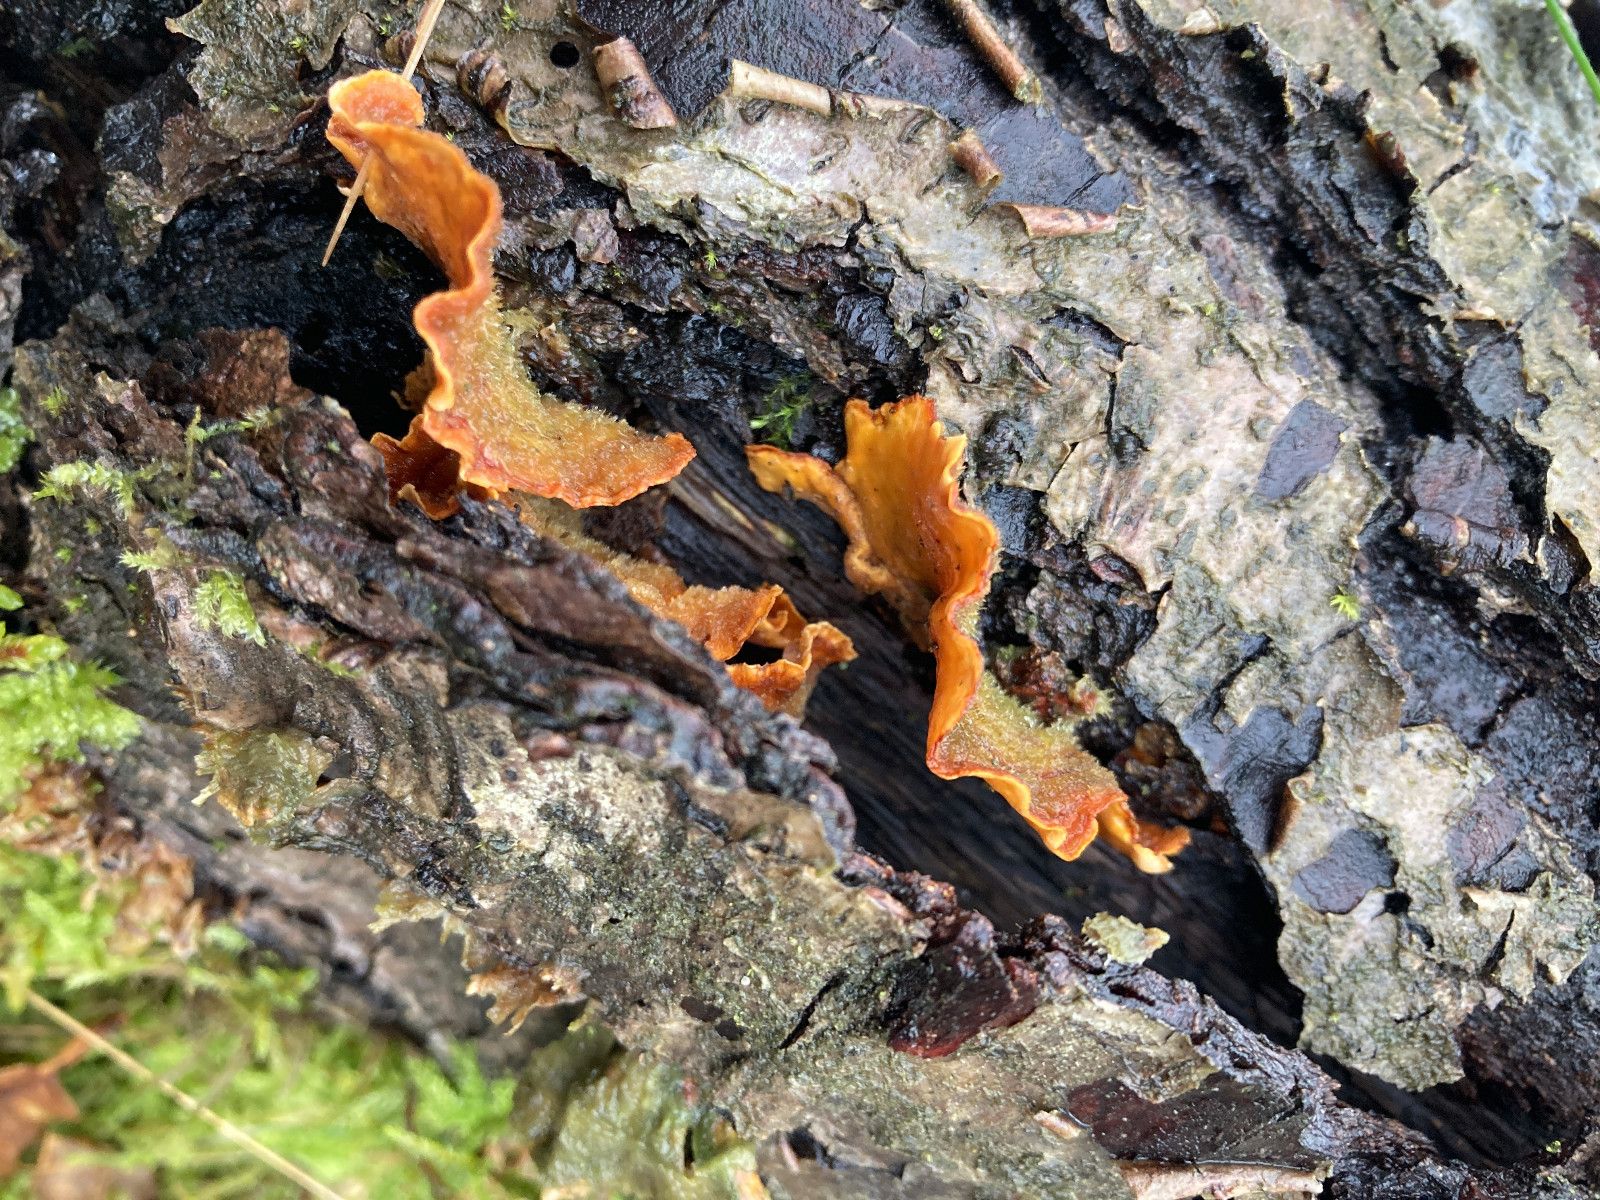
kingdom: Fungi
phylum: Basidiomycota
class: Agaricomycetes
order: Russulales
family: Stereaceae
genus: Stereum
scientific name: Stereum hirsutum
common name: håret lædersvamp
